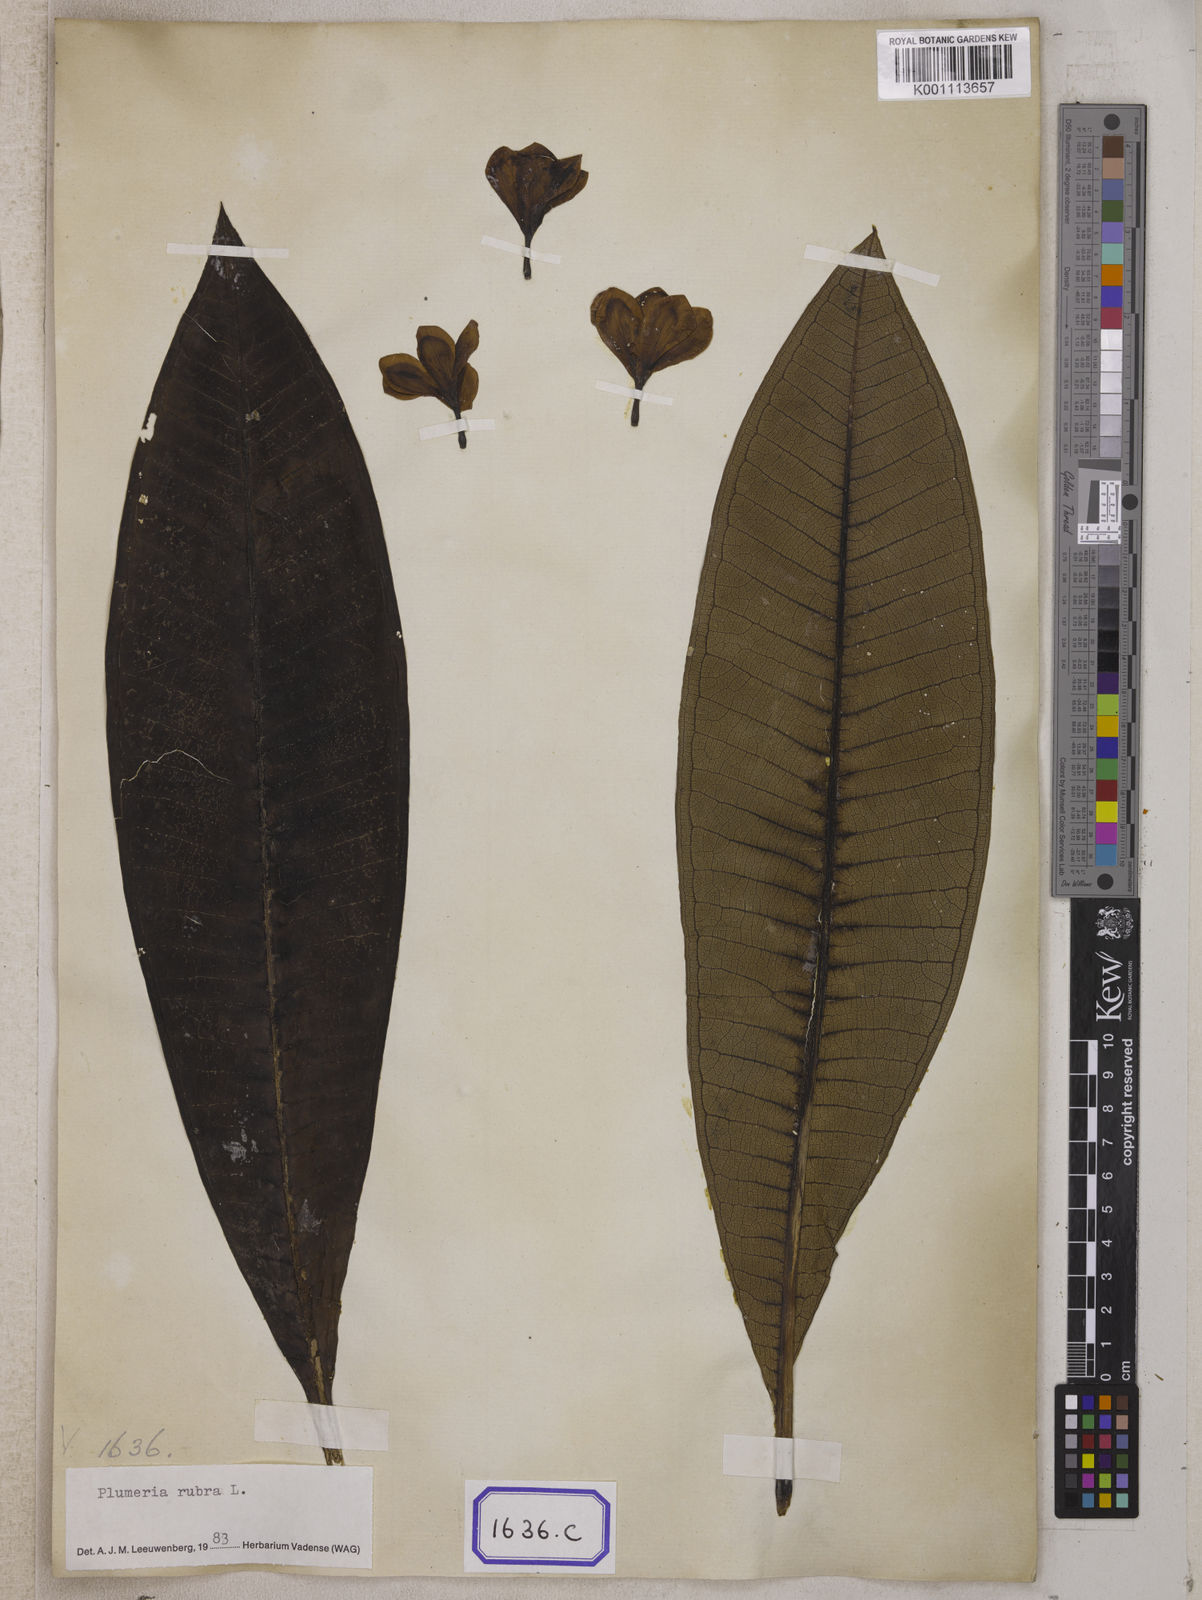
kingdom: Plantae
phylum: Tracheophyta
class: Magnoliopsida
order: Gentianales
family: Apocynaceae
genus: Plumeria
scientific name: Plumeria rubra
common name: Pagoda-tree
